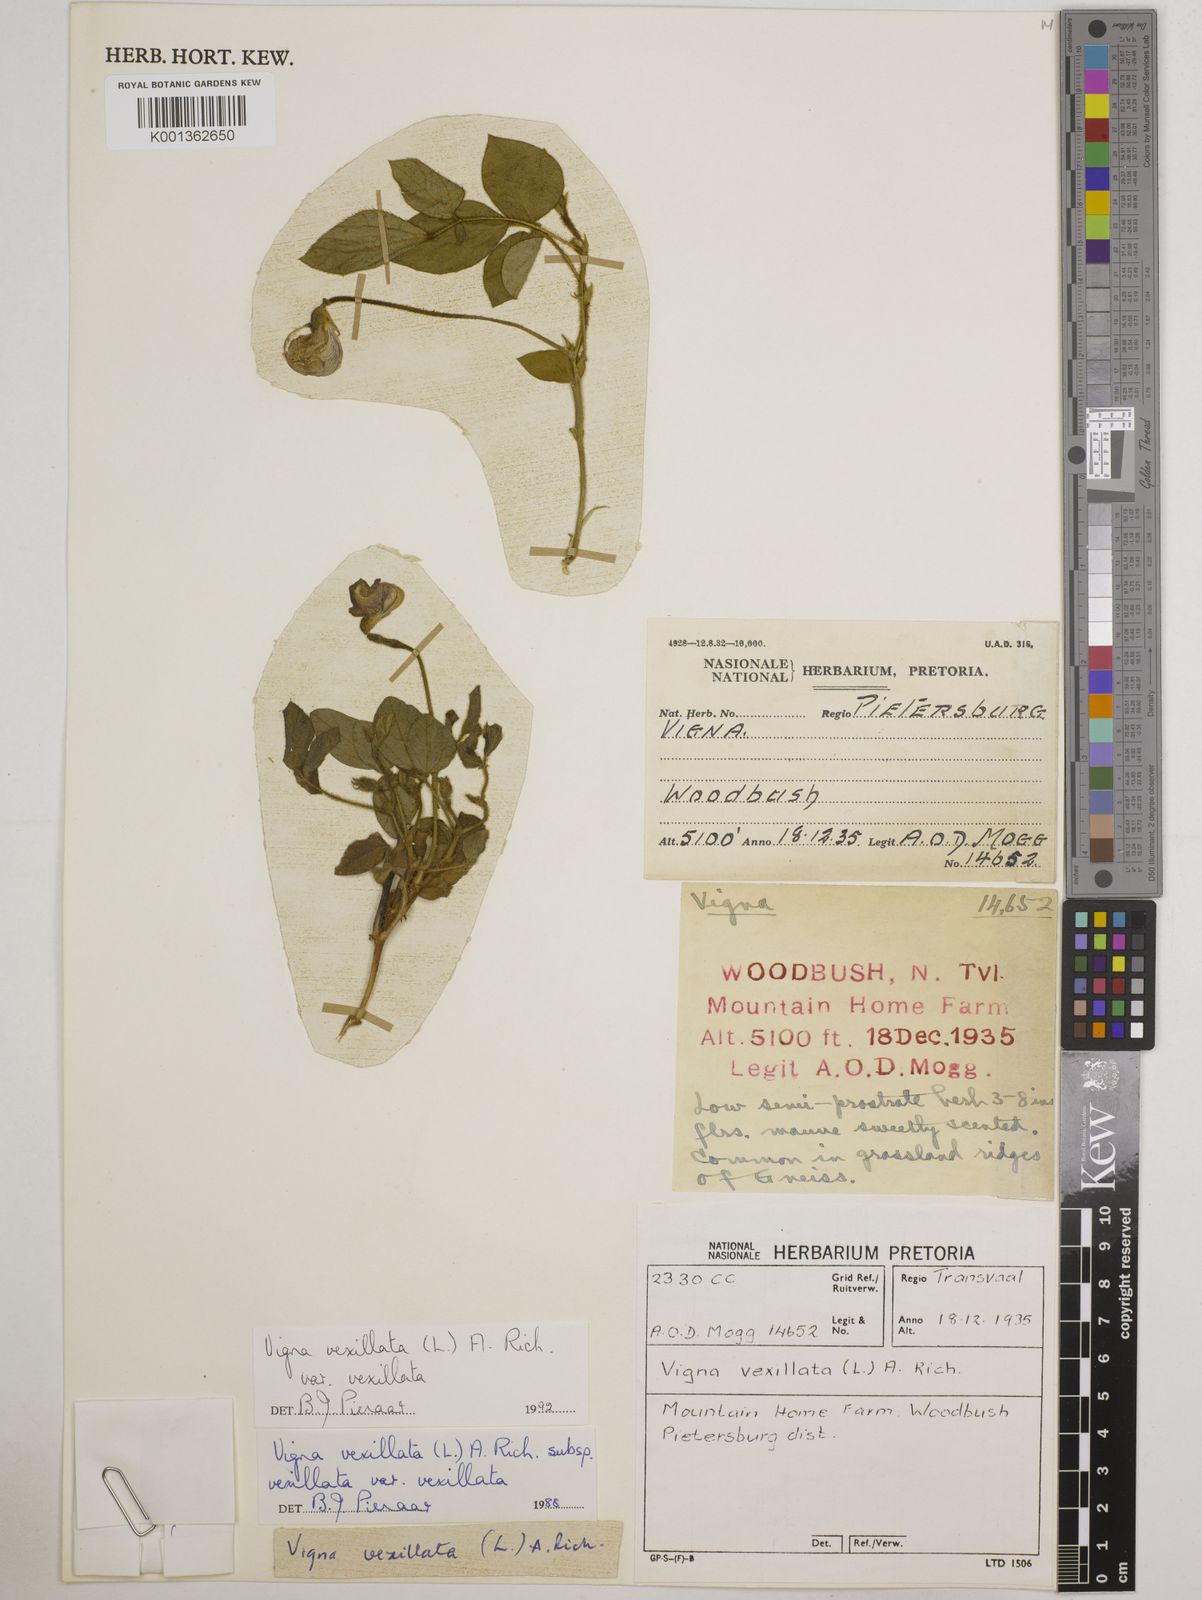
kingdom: Plantae
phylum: Tracheophyta
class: Magnoliopsida
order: Fabales
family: Fabaceae
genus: Vigna
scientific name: Vigna vexillata
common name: Zombi pea
